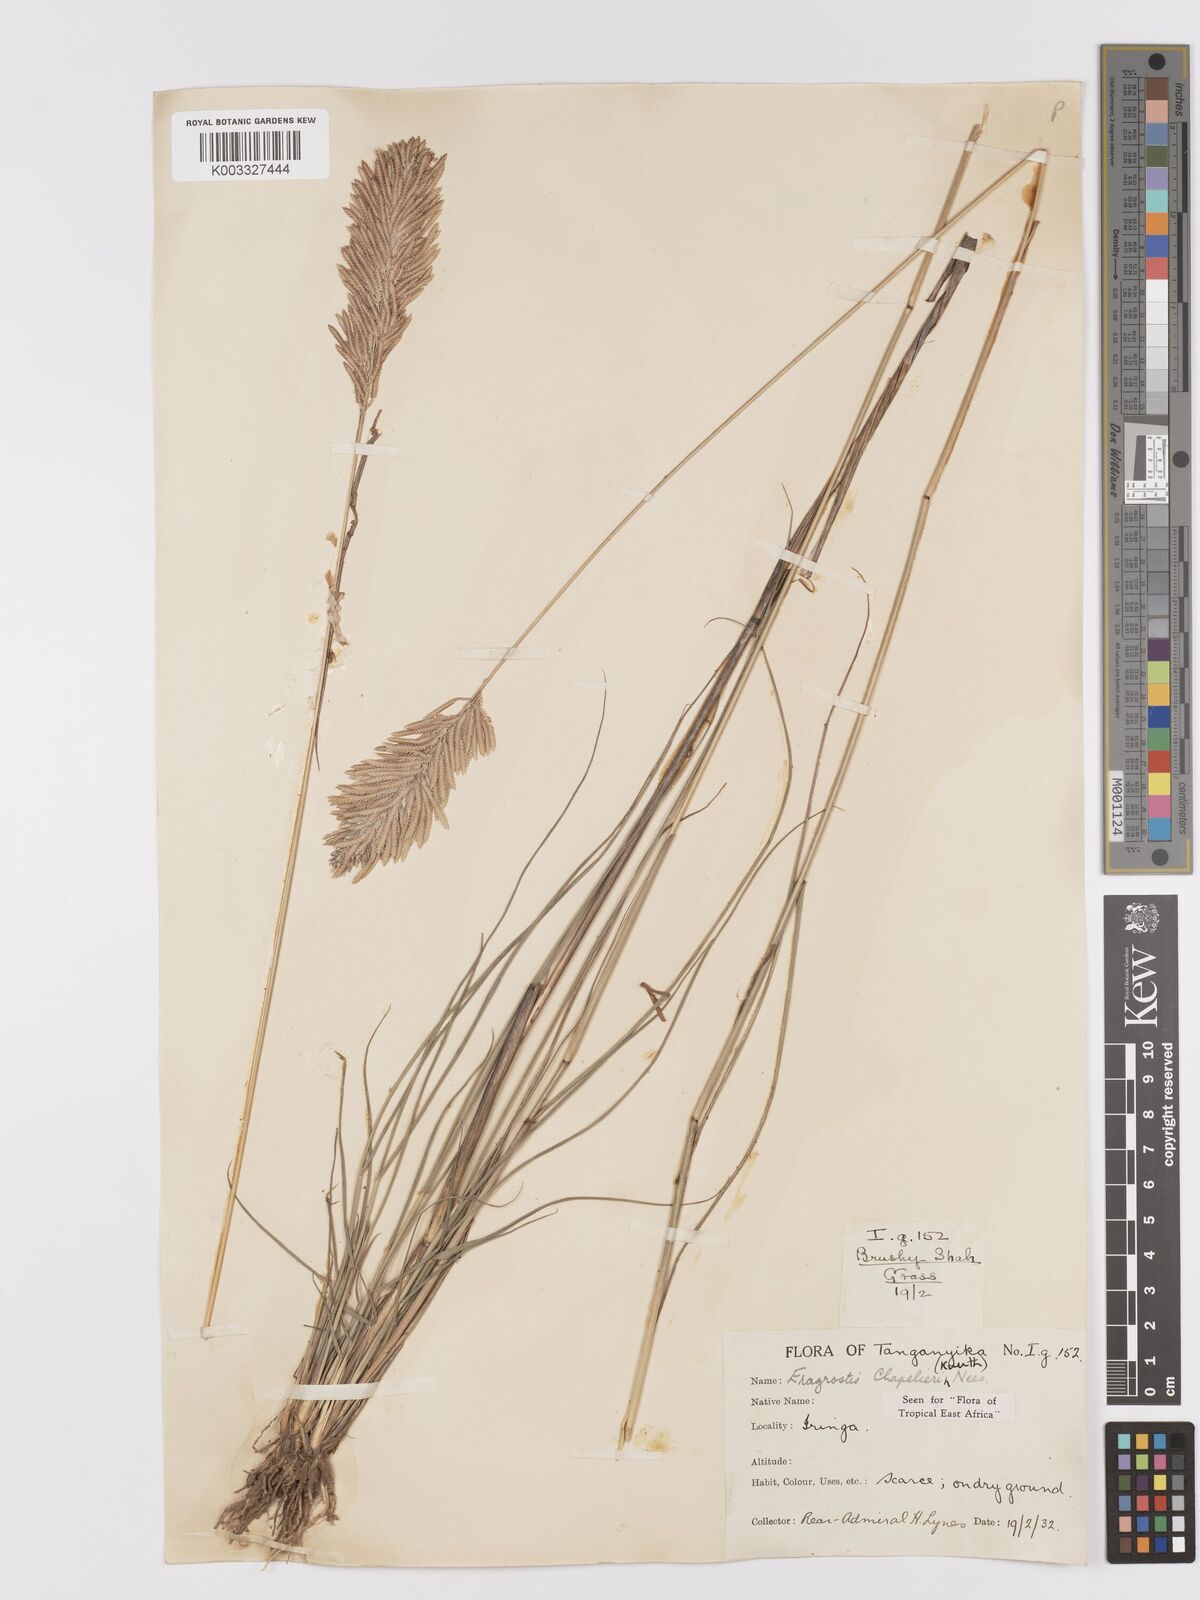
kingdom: Plantae
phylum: Tracheophyta
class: Liliopsida
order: Poales
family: Poaceae
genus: Eragrostis
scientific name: Eragrostis chapelieri
